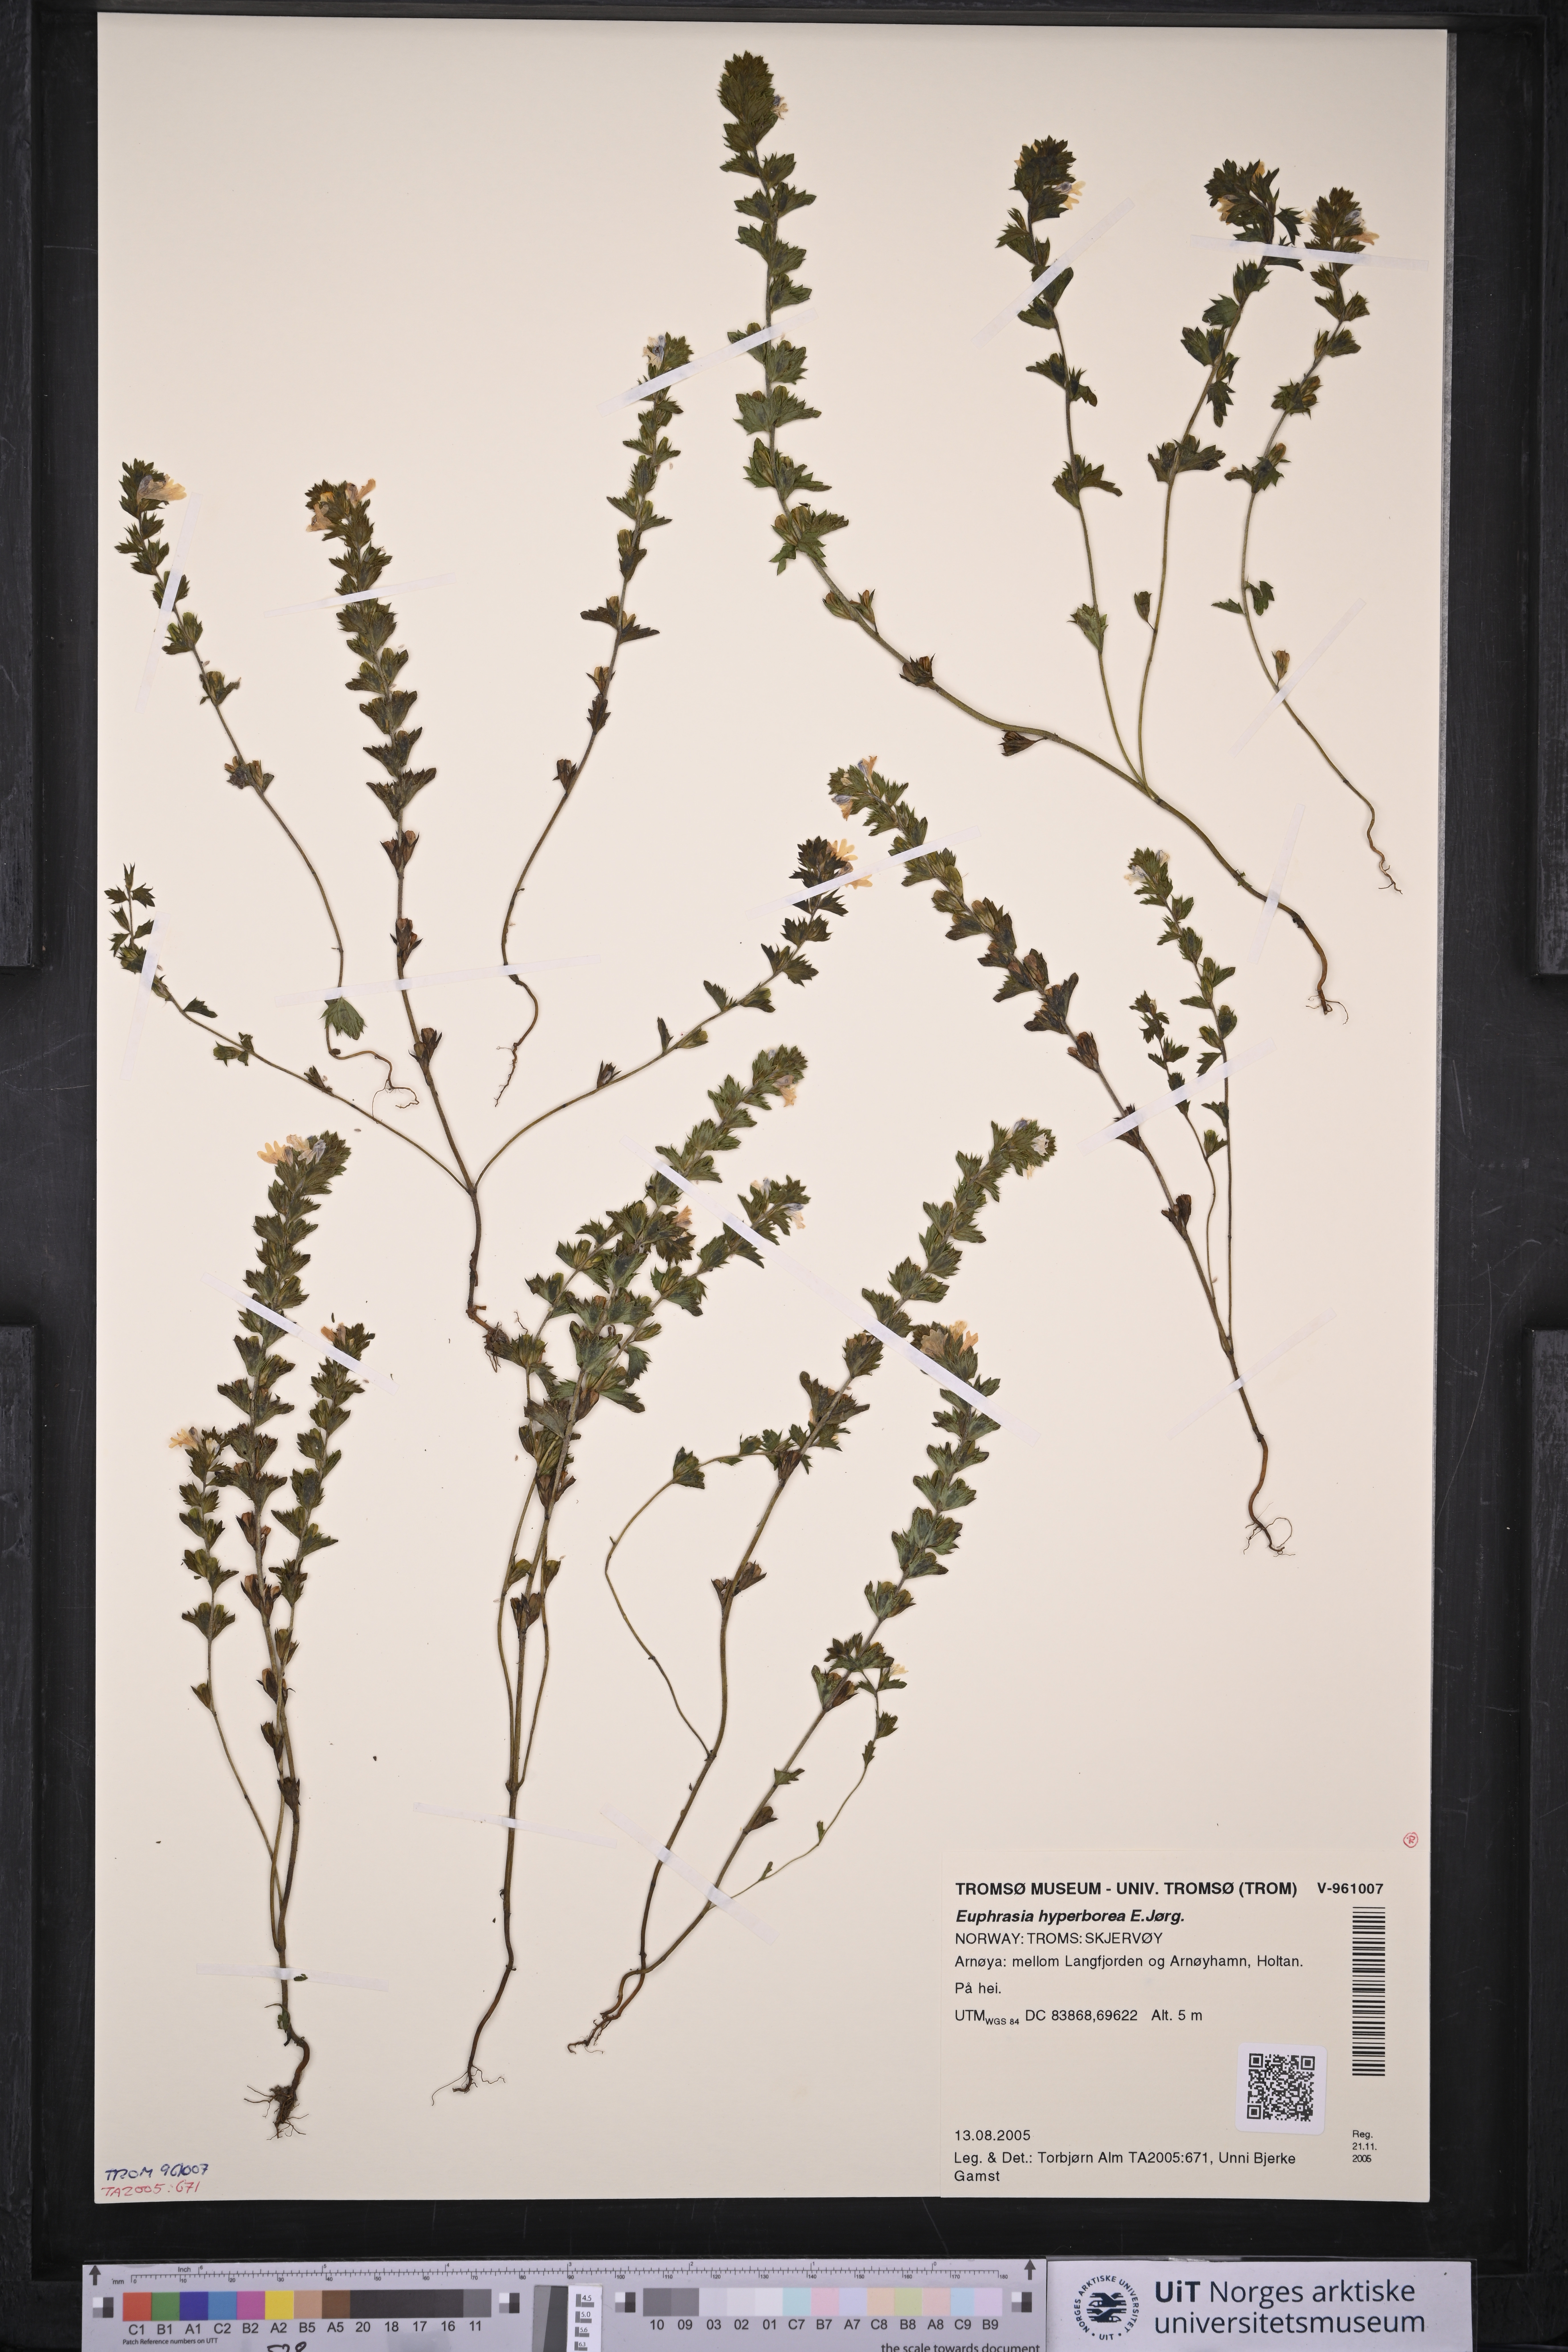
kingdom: Plantae
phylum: Tracheophyta
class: Magnoliopsida
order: Lamiales
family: Orobanchaceae
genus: Euphrasia
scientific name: Euphrasia hyperborea
